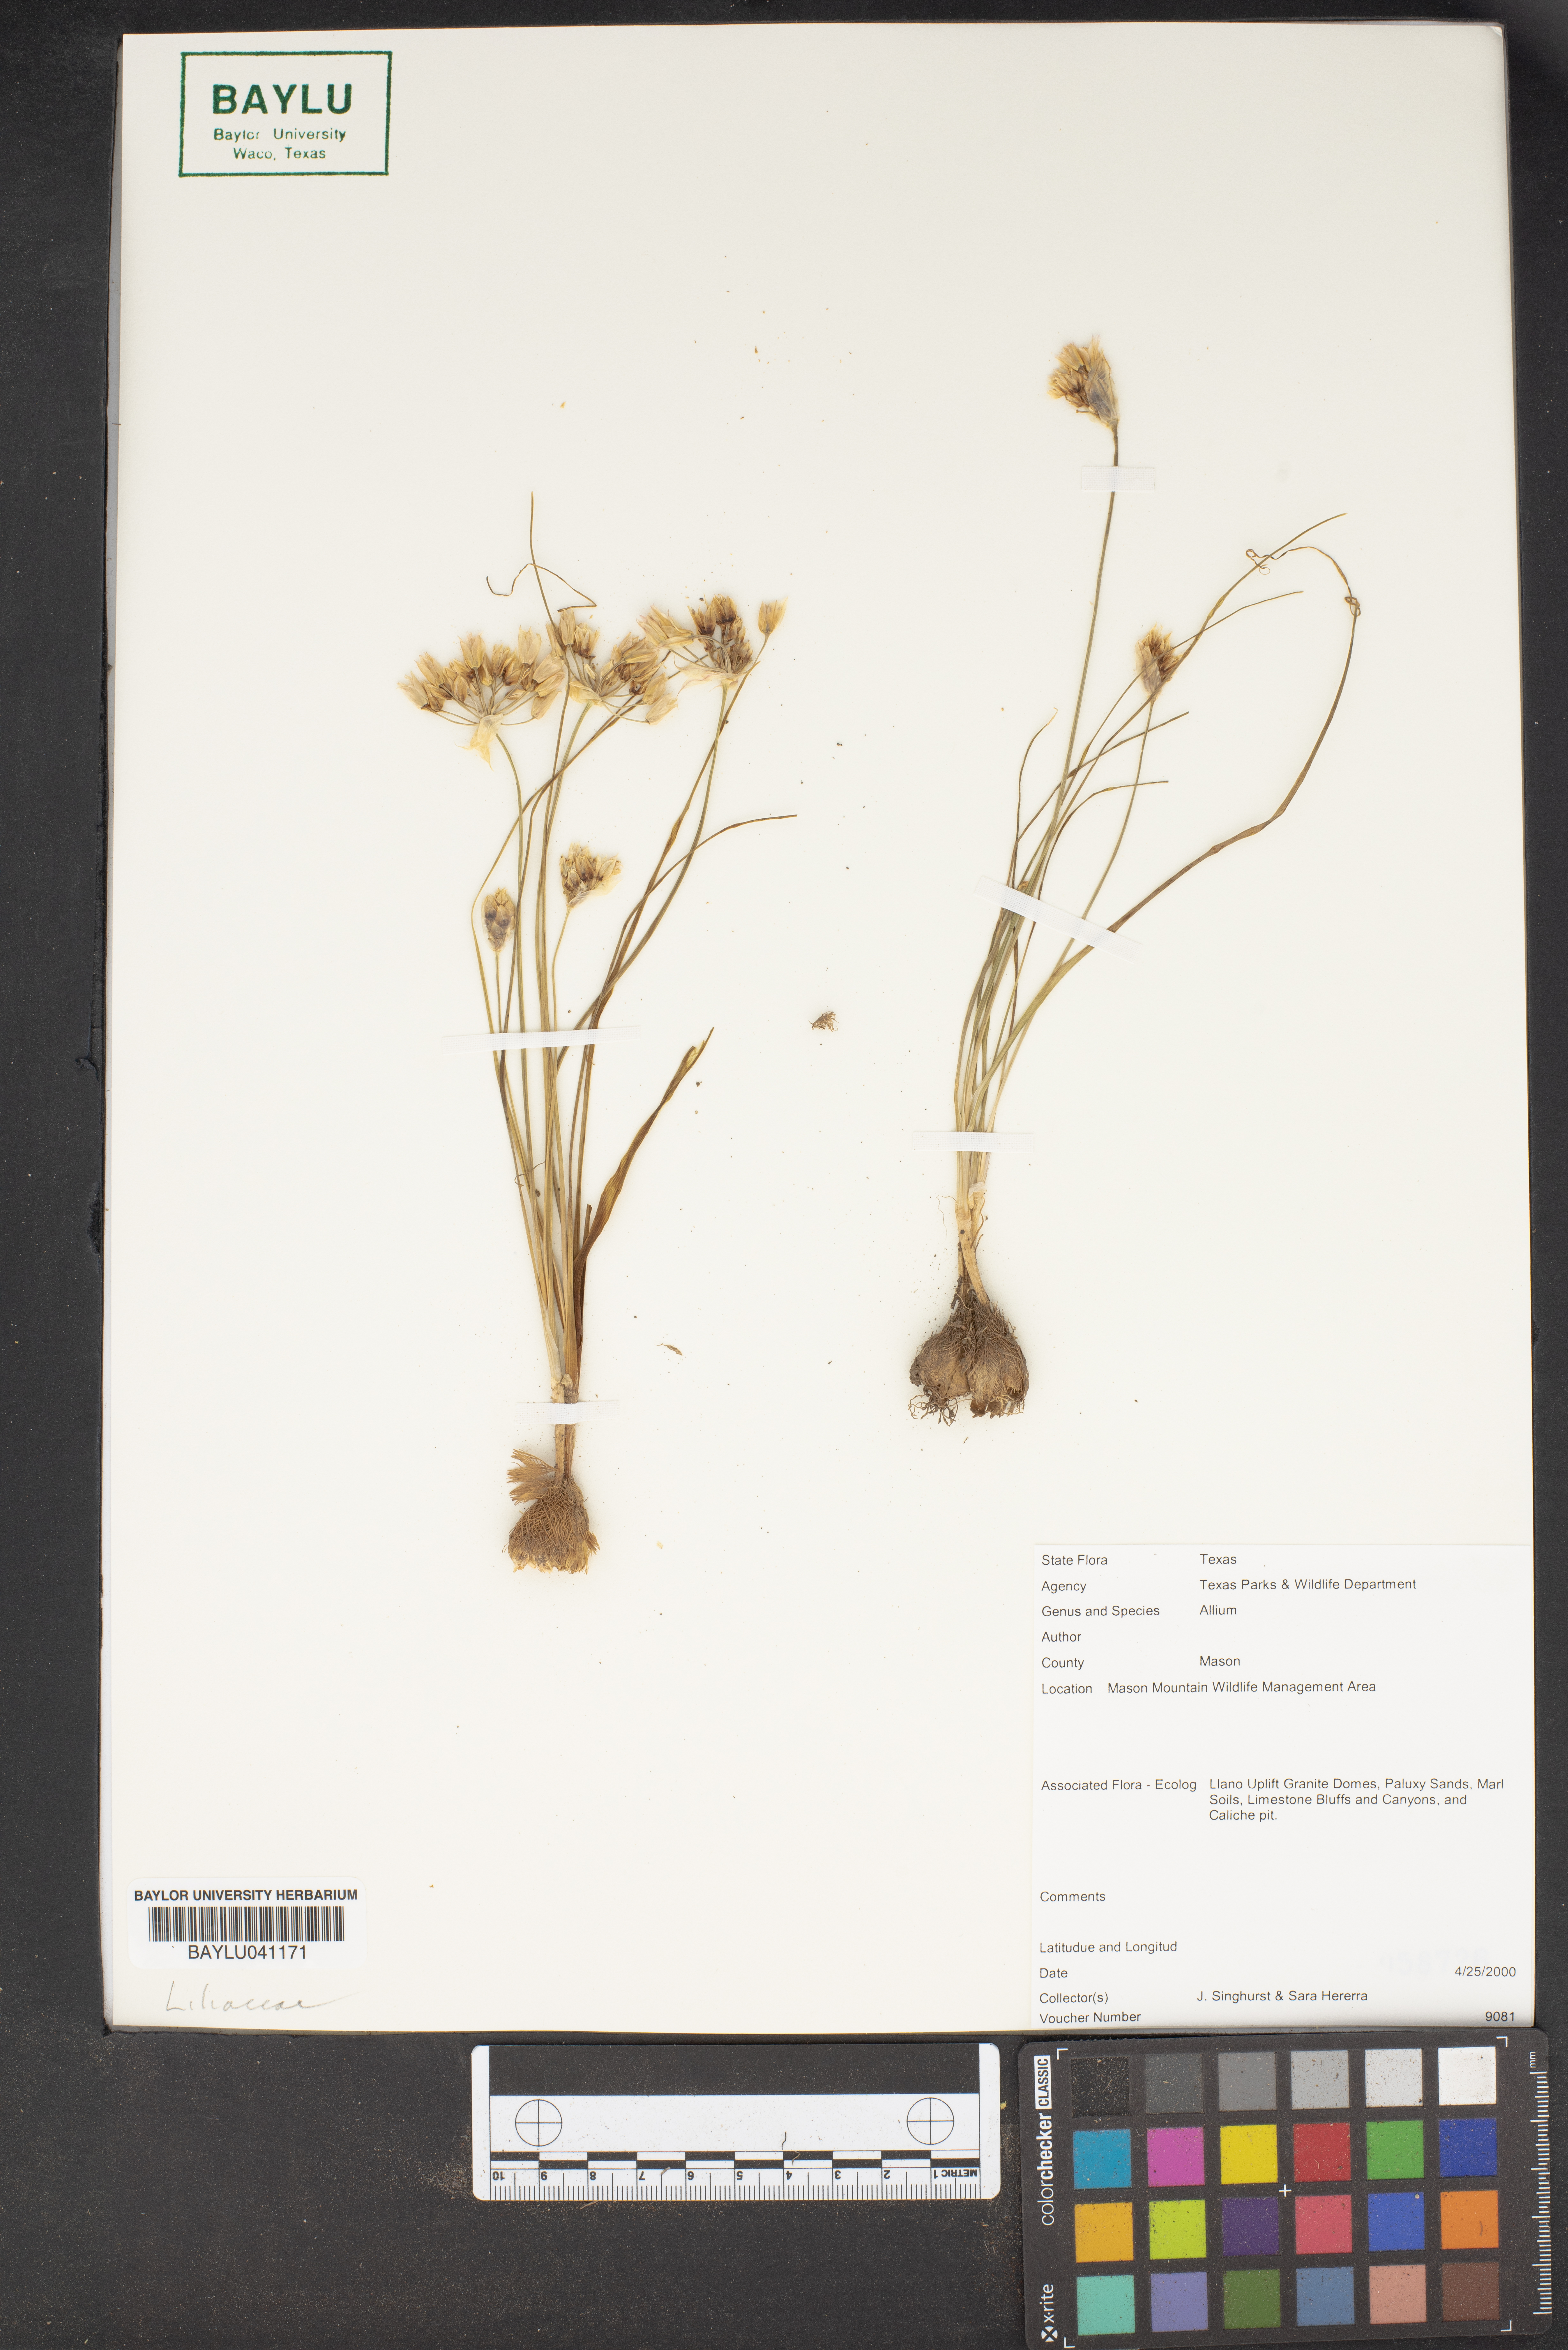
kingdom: Plantae
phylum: Tracheophyta
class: Liliopsida
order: Asparagales
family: Amaryllidaceae
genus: Allium
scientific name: Allium
